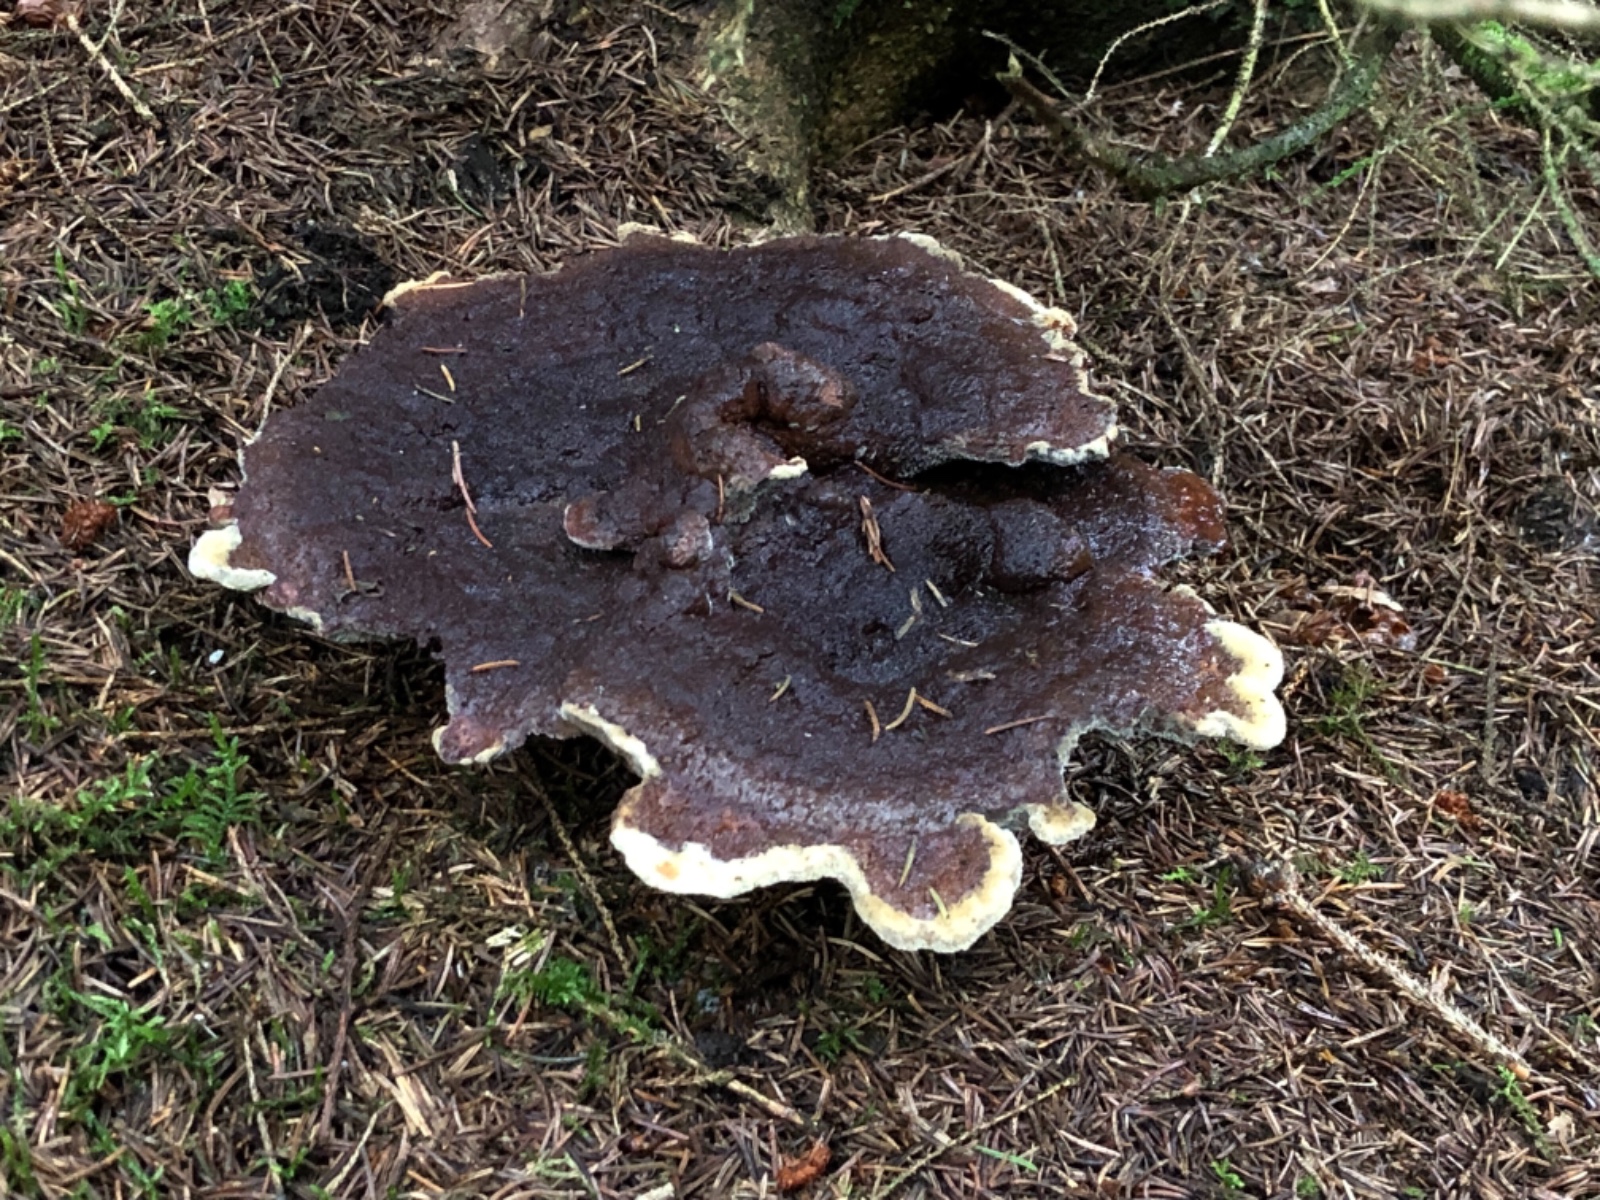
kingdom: Fungi
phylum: Basidiomycota
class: Agaricomycetes
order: Polyporales
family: Laetiporaceae
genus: Phaeolus
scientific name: Phaeolus schweinitzii
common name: brunporesvamp
